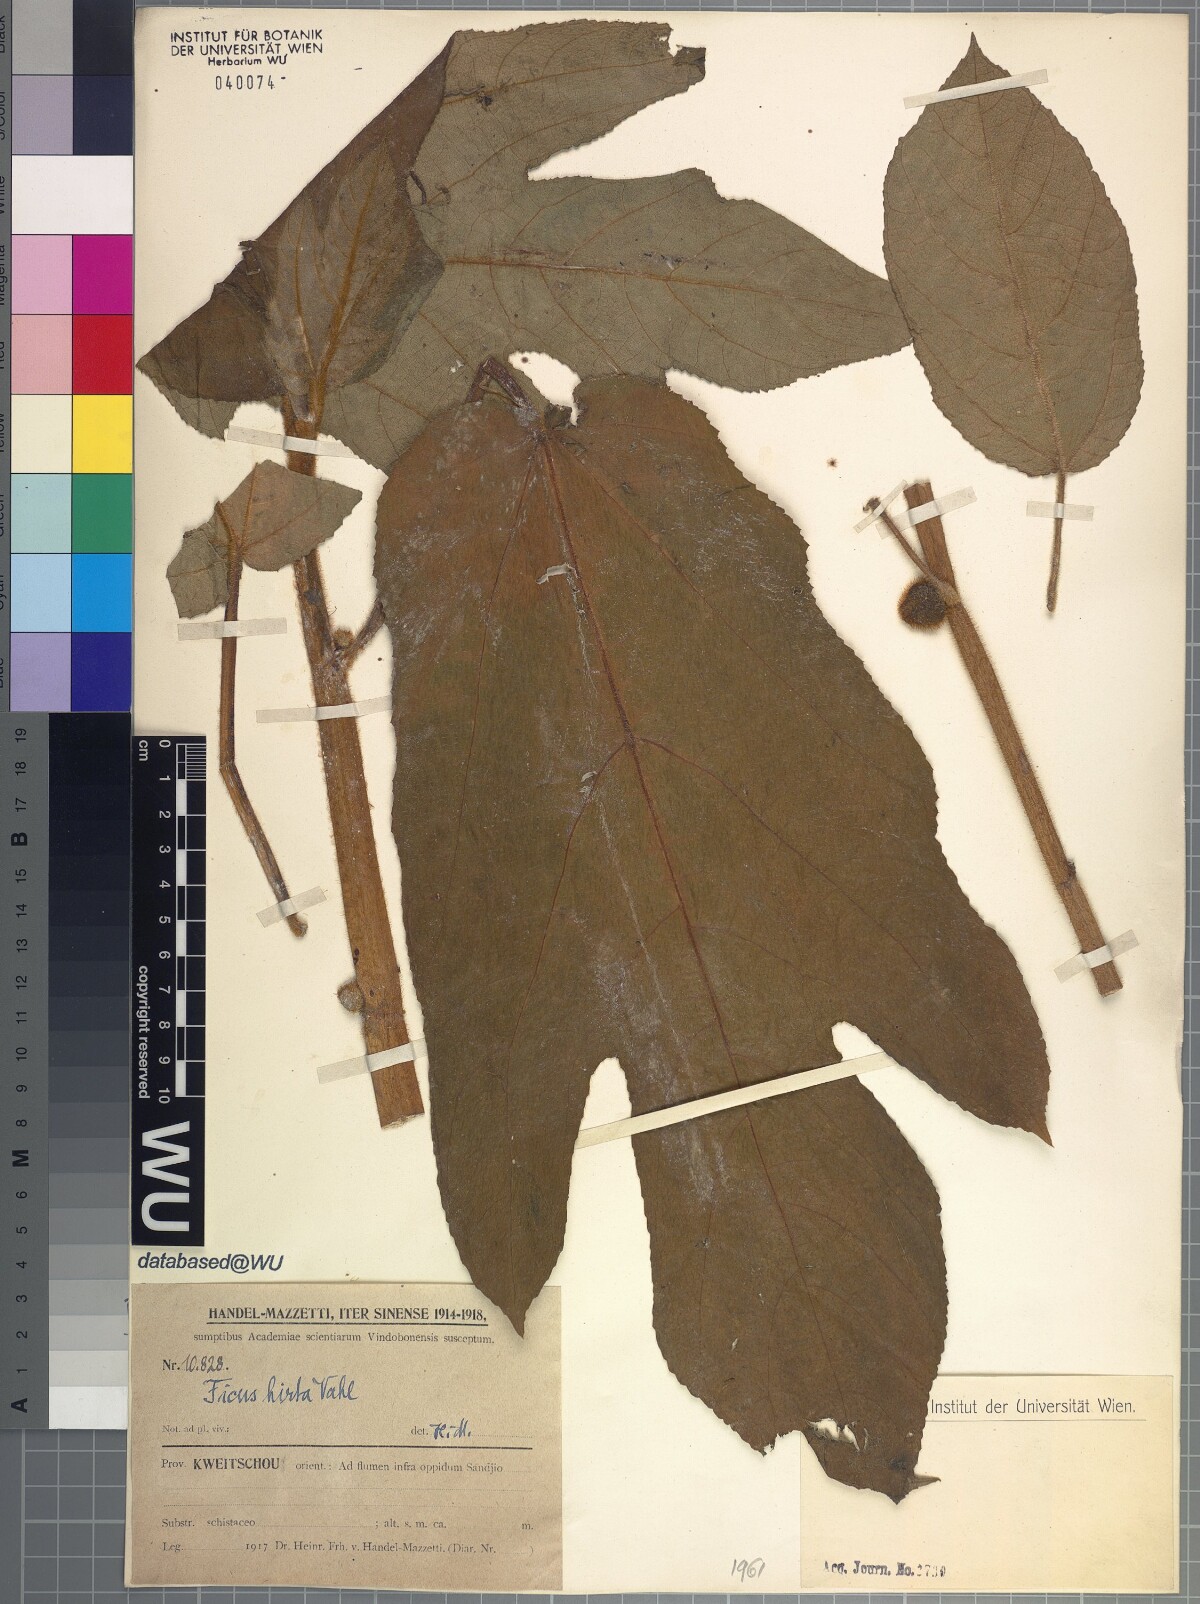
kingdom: Plantae
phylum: Tracheophyta
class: Magnoliopsida
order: Rosales
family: Moraceae
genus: Ficus
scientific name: Ficus simplicissima
